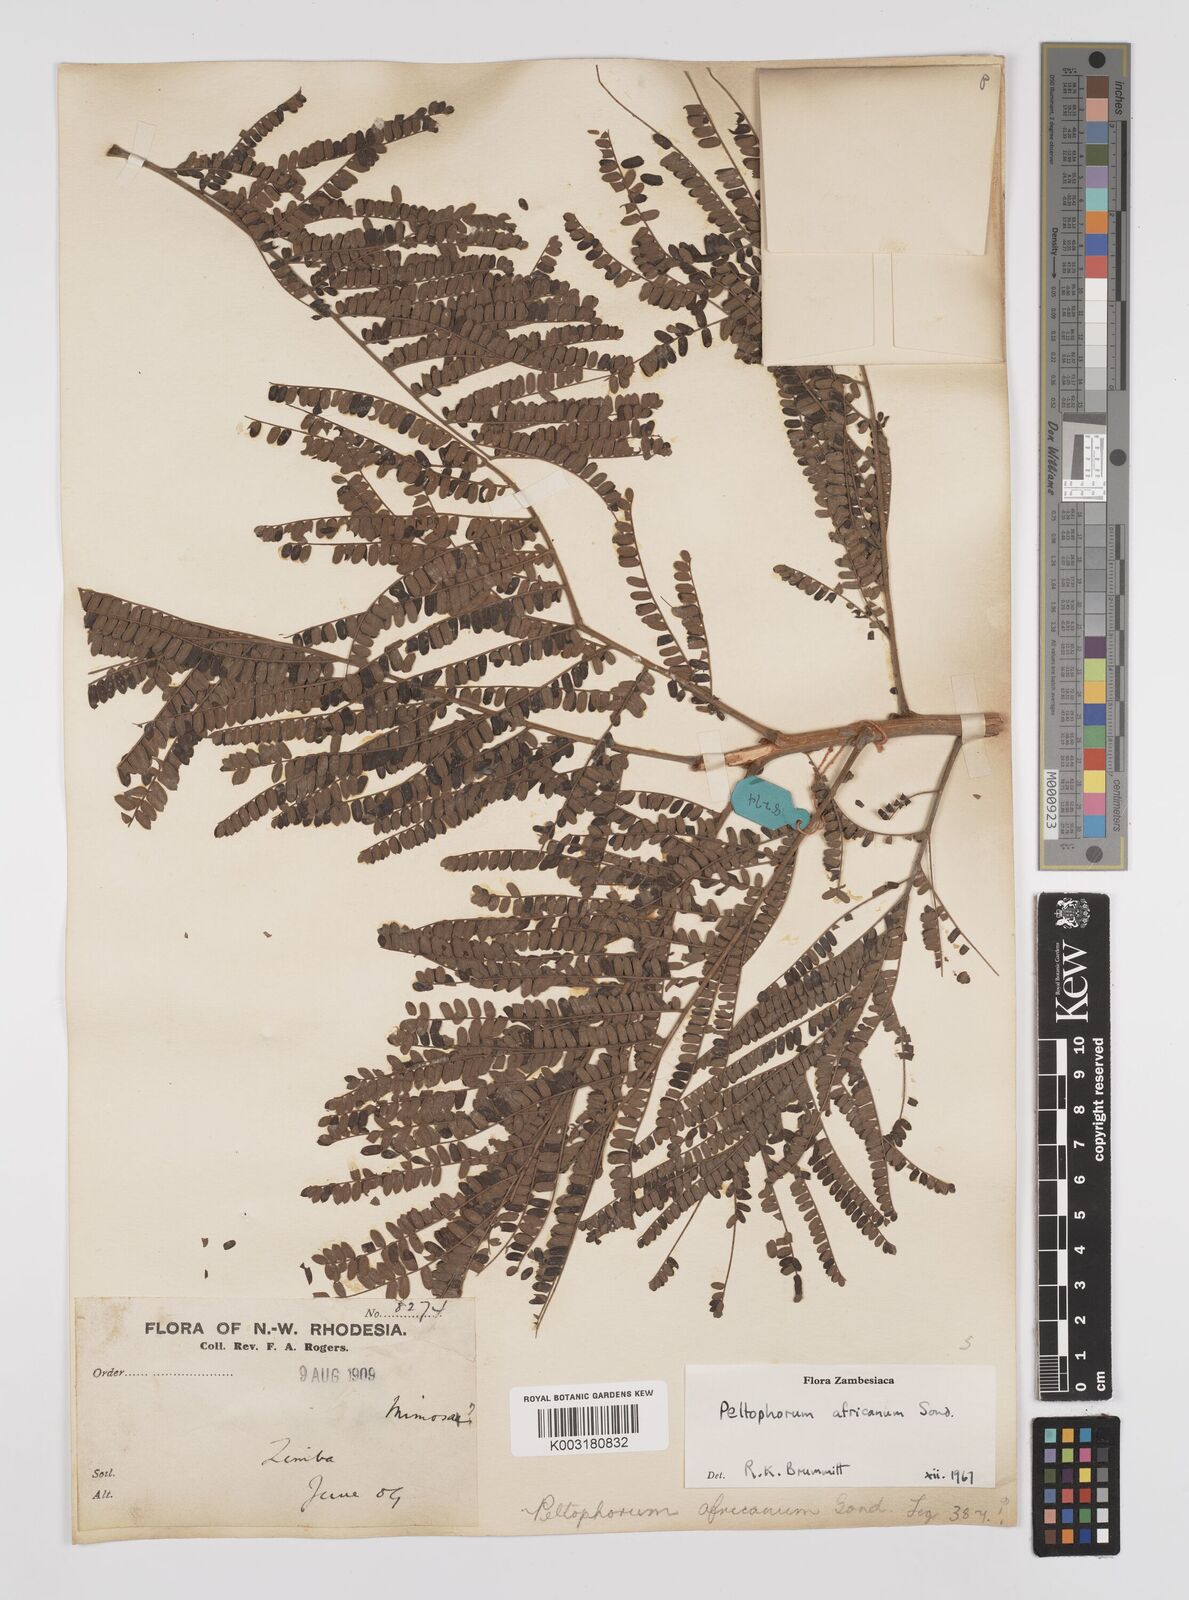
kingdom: Plantae
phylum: Tracheophyta
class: Magnoliopsida
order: Fabales
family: Fabaceae
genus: Peltophorum
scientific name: Peltophorum africanum
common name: African black wattle
